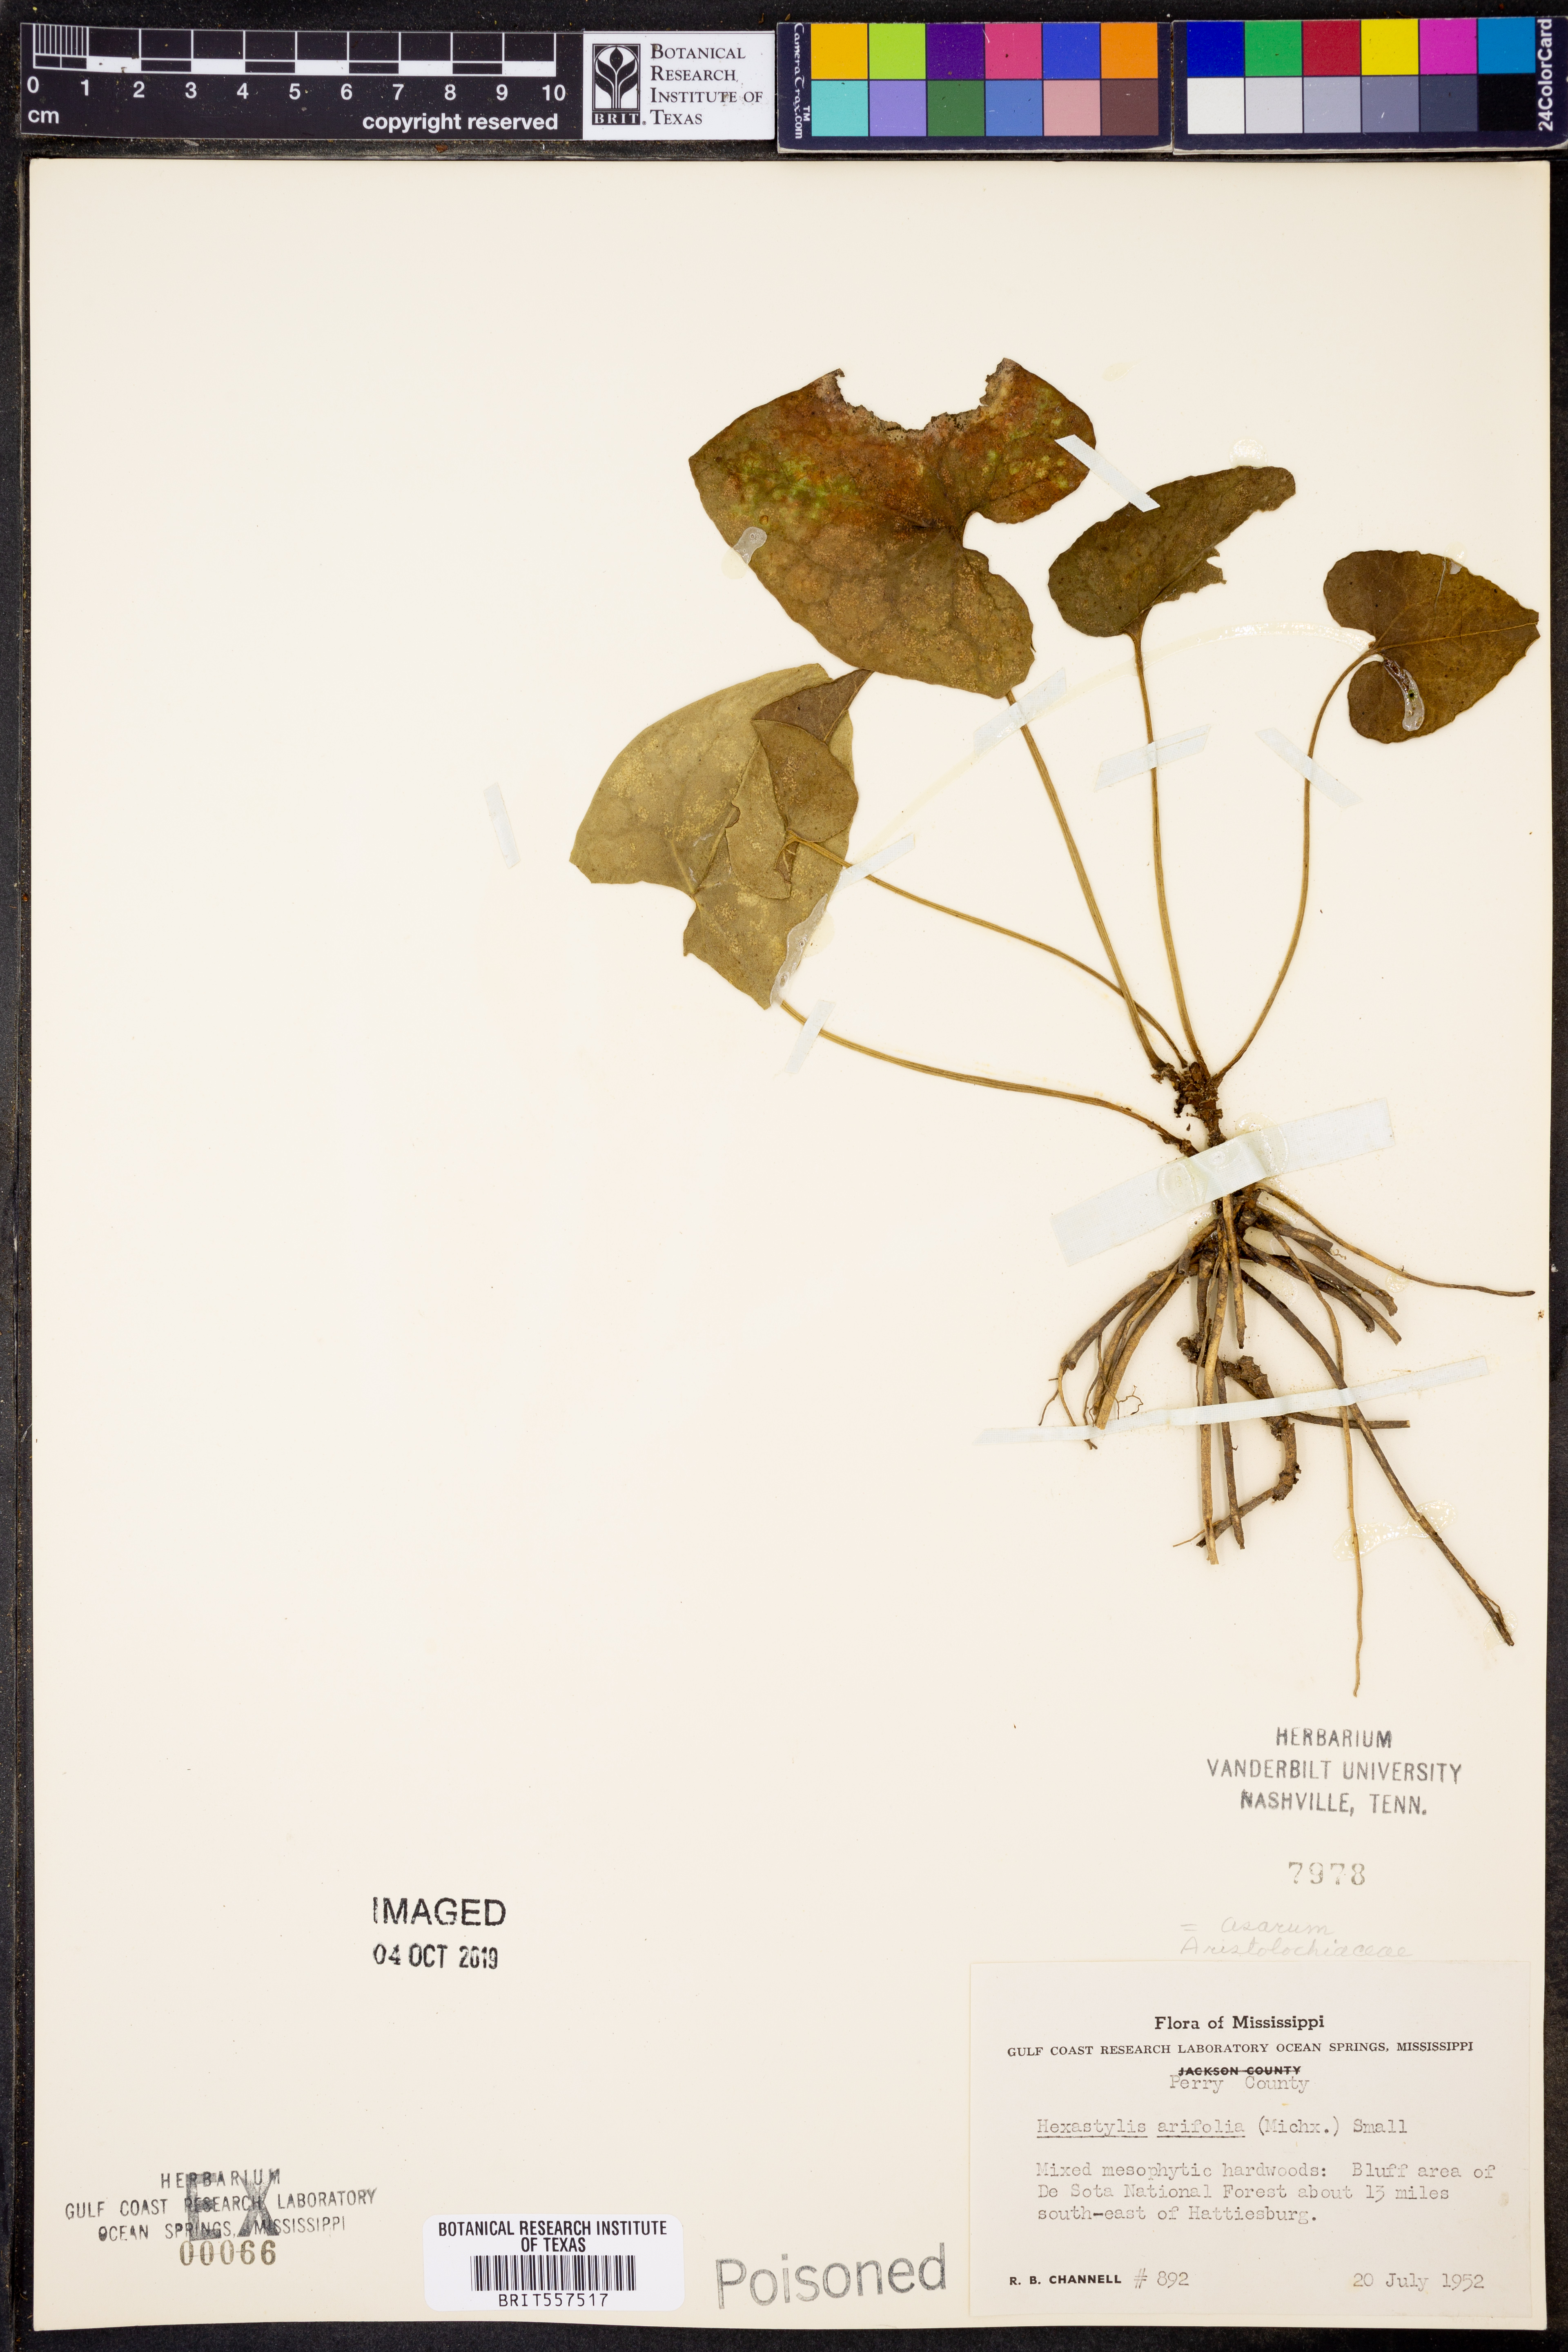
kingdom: Plantae
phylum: Tracheophyta
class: Magnoliopsida
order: Piperales
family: Aristolochiaceae
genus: Hexastylis
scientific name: Hexastylis arifolia
